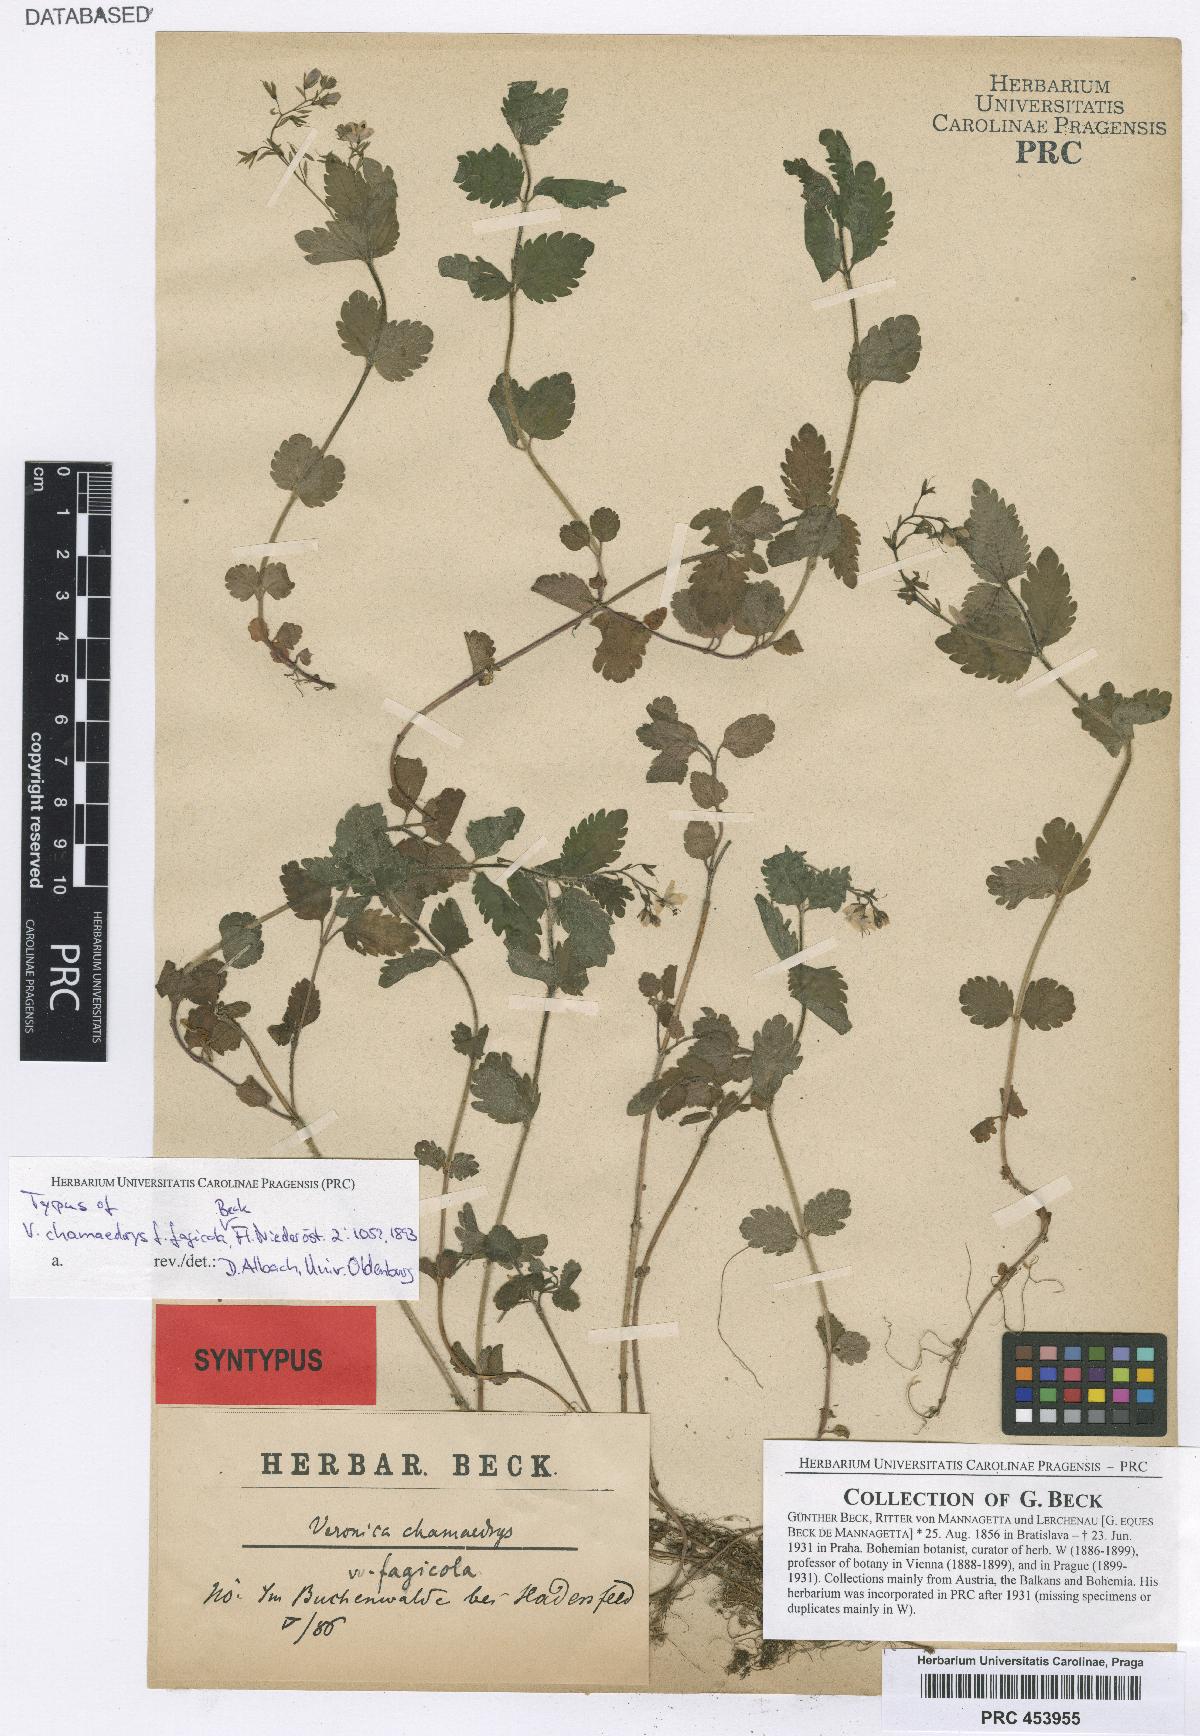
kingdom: Plantae
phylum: Tracheophyta
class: Magnoliopsida
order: Lamiales
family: Plantaginaceae
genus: Veronica
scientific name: Veronica chamaedrys
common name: Germander speedwell
